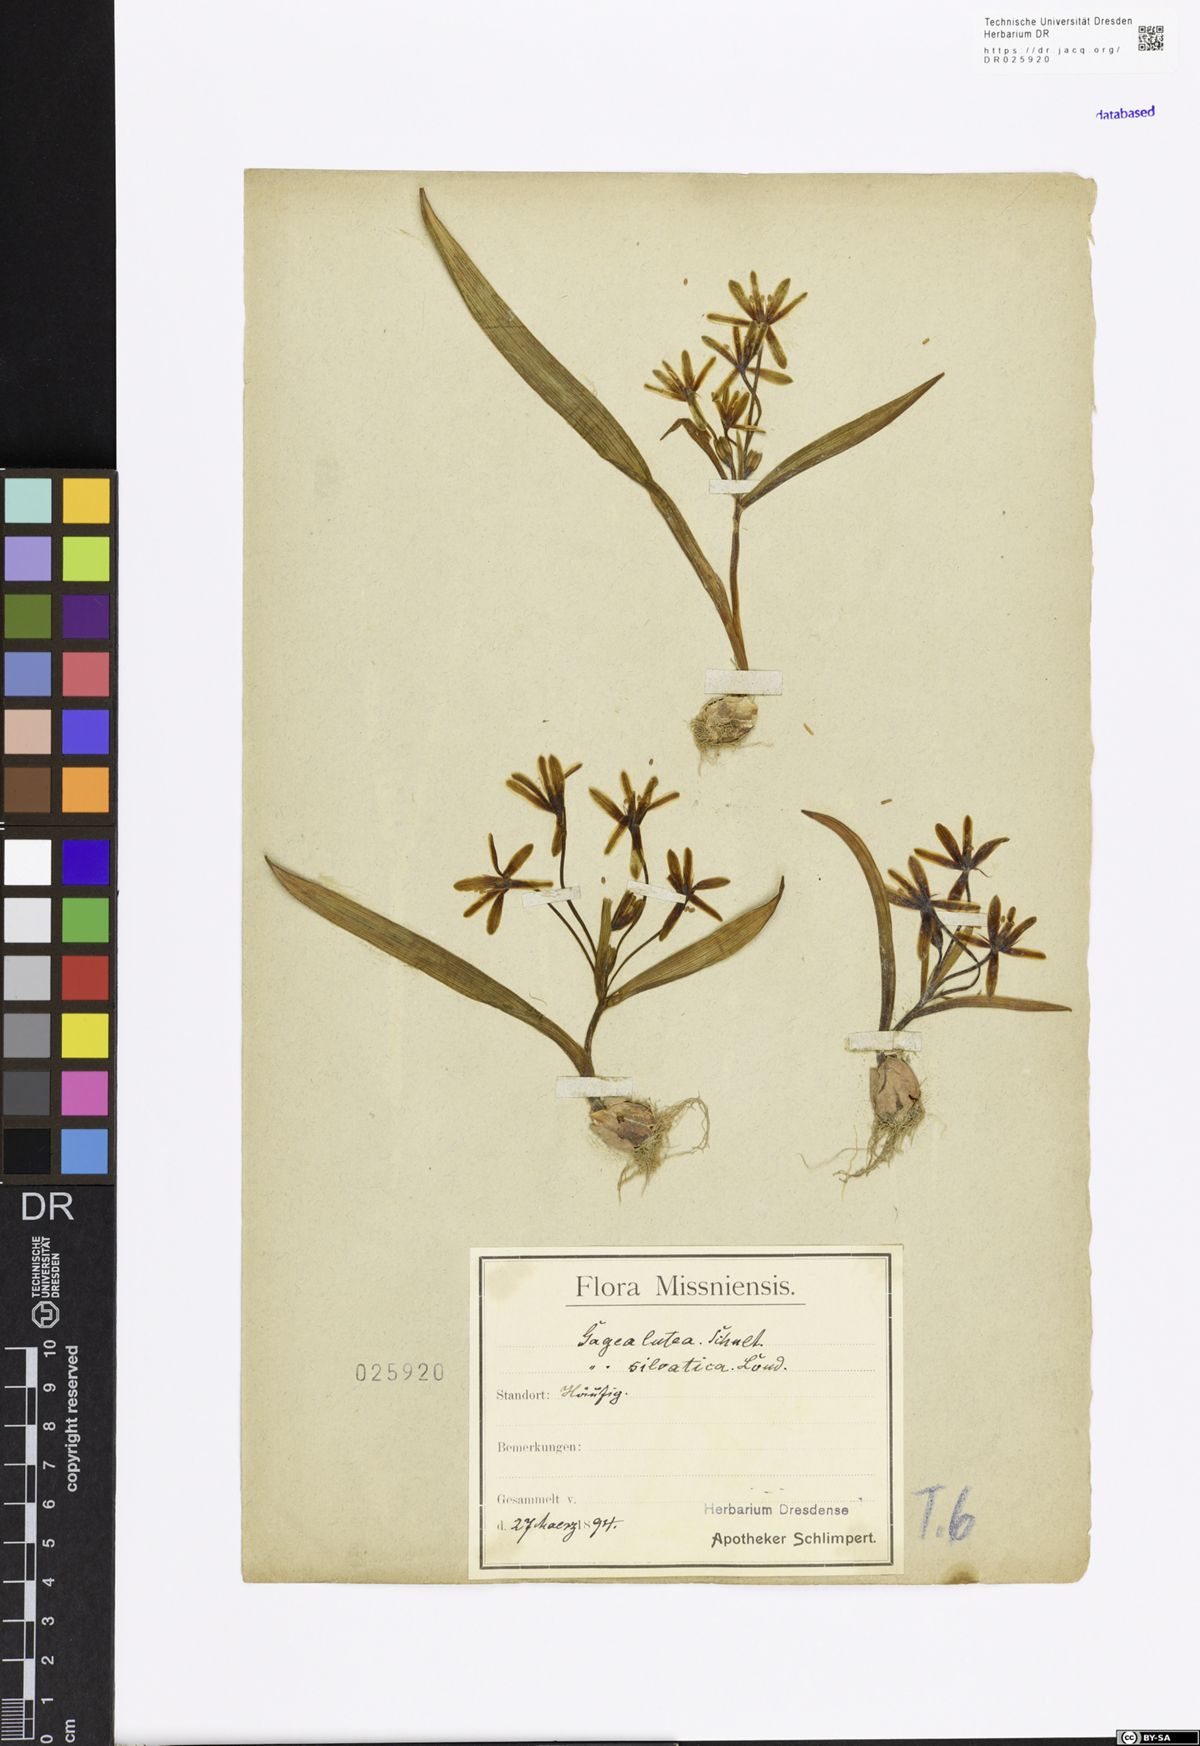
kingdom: Plantae
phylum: Tracheophyta
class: Liliopsida
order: Liliales
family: Liliaceae
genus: Gagea
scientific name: Gagea lutea
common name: Yellow star-of-bethlehem
